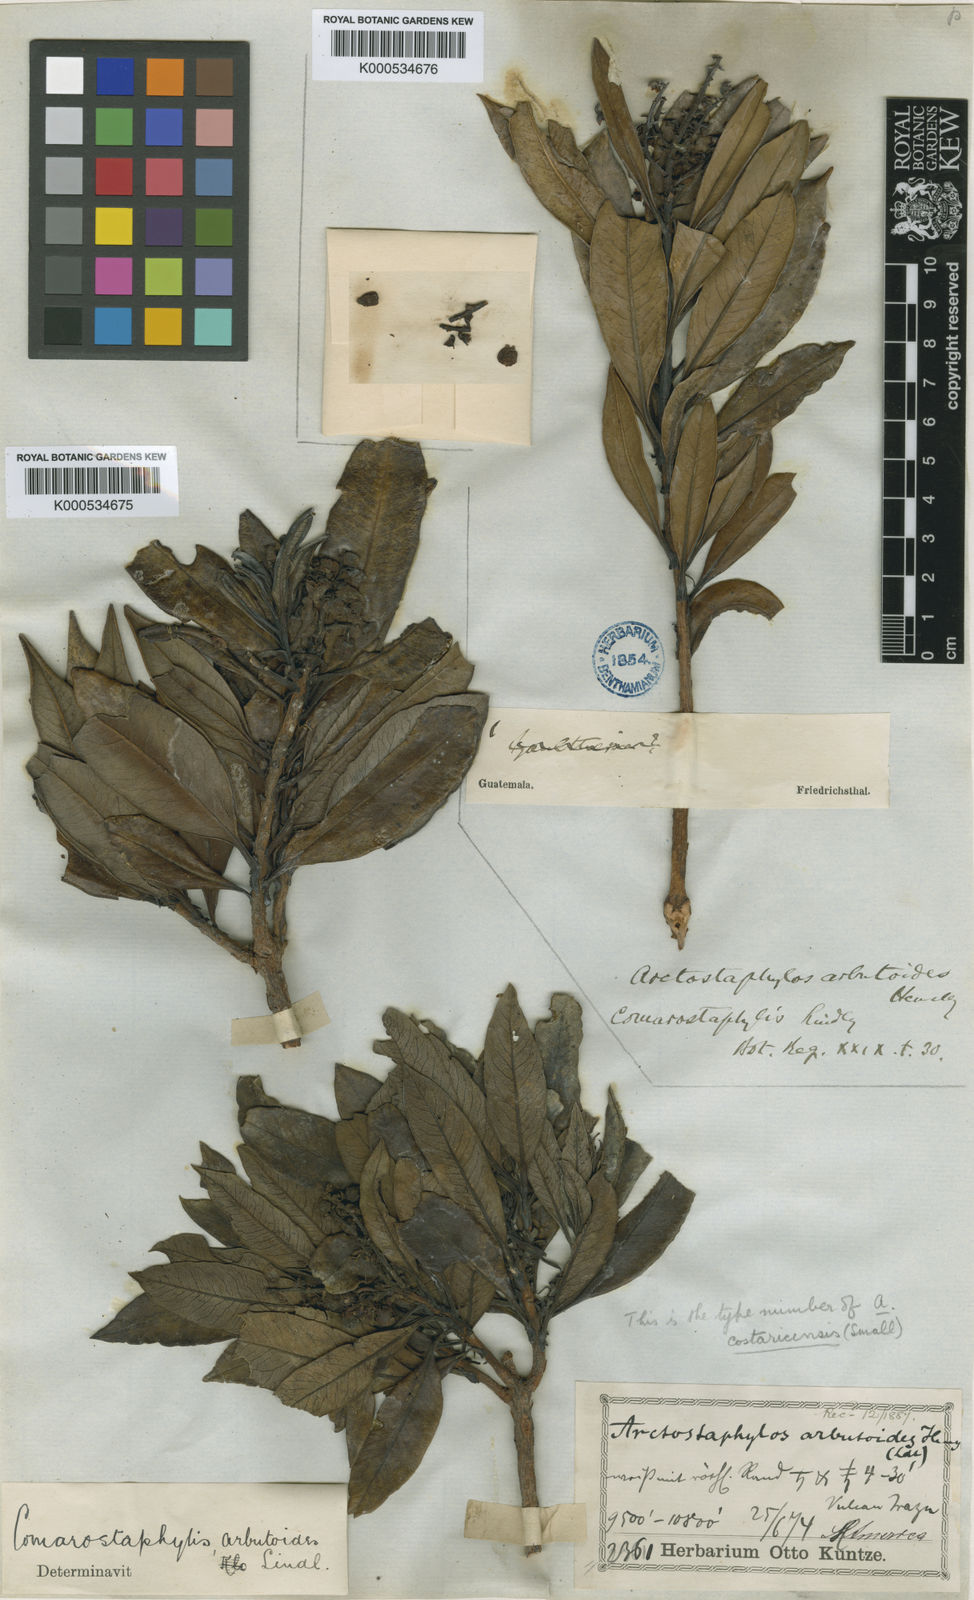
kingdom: Plantae
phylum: Tracheophyta
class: Magnoliopsida
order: Ericales
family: Ericaceae
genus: Comarostaphylis
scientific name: Comarostaphylis arbutoides
